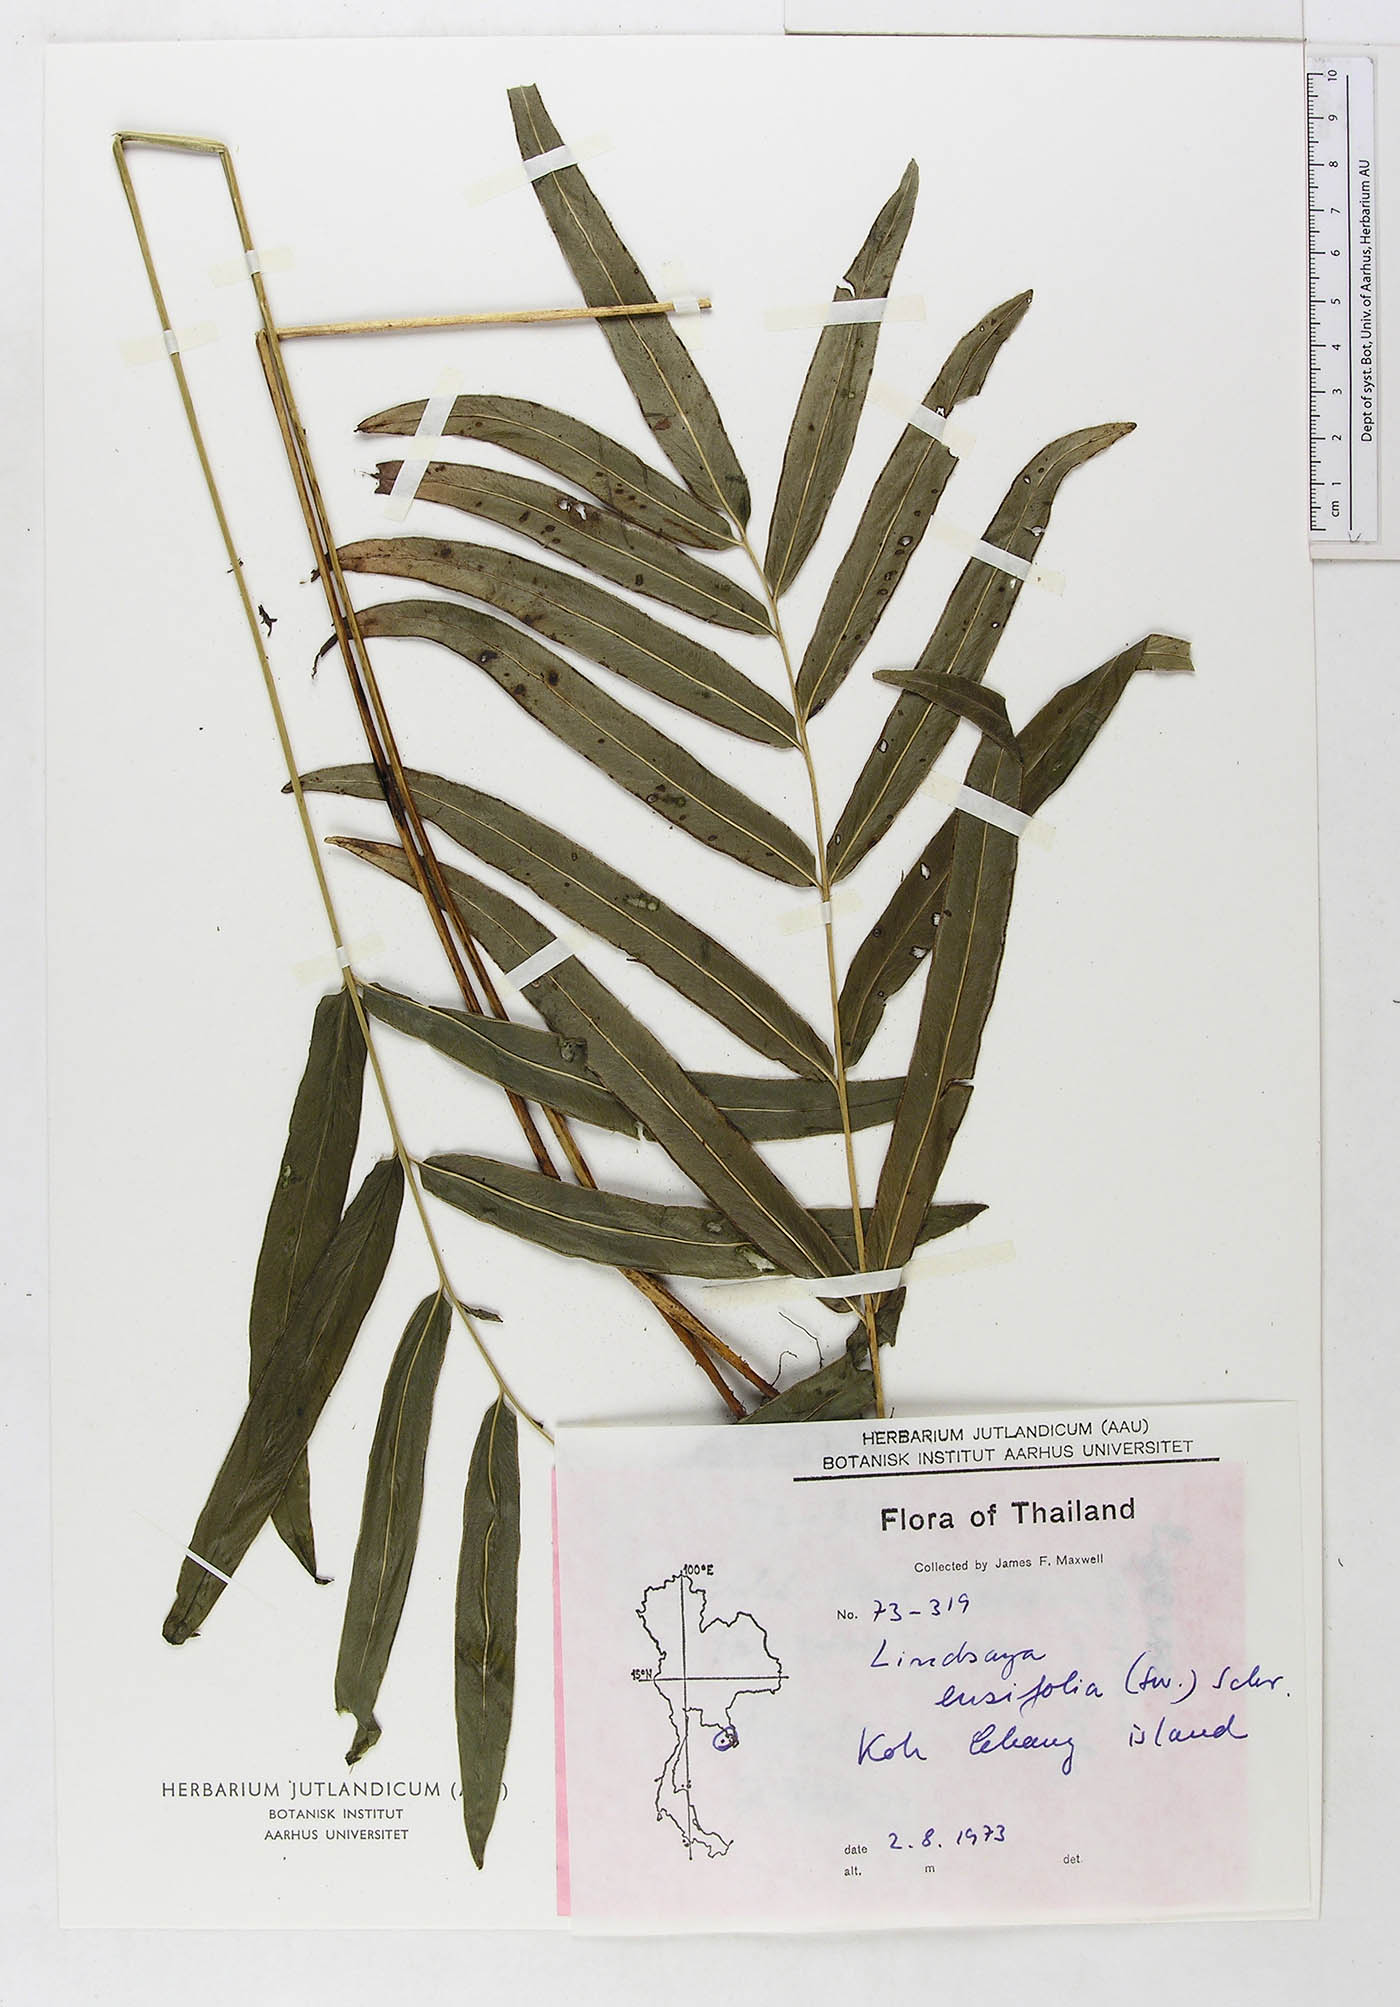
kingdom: Plantae
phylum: Tracheophyta
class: Polypodiopsida
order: Polypodiales
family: Lindsaeaceae
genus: Lindsaea
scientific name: Lindsaea ensifolia
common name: Graceful necklace fern
